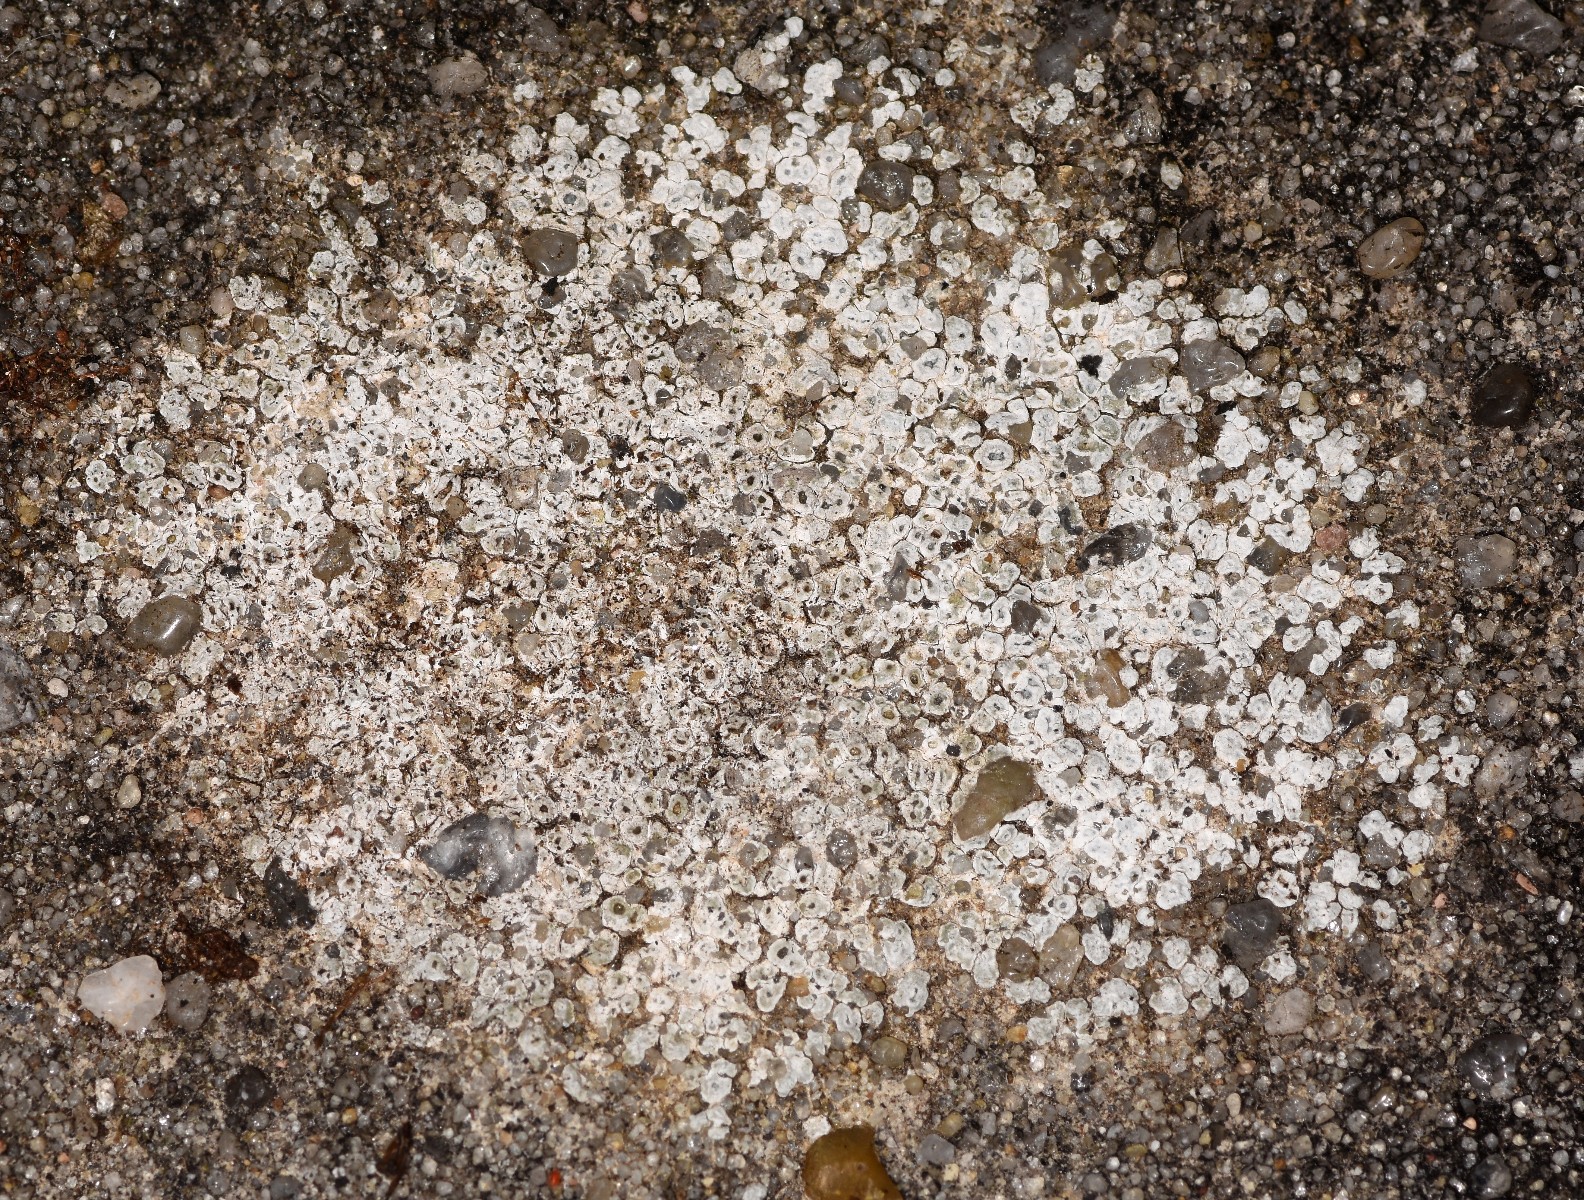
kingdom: Fungi
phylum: Ascomycota
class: Lecanoromycetes
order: Pertusariales
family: Megasporaceae
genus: Circinaria
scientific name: Circinaria contorta
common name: indviklet hulskivelav
